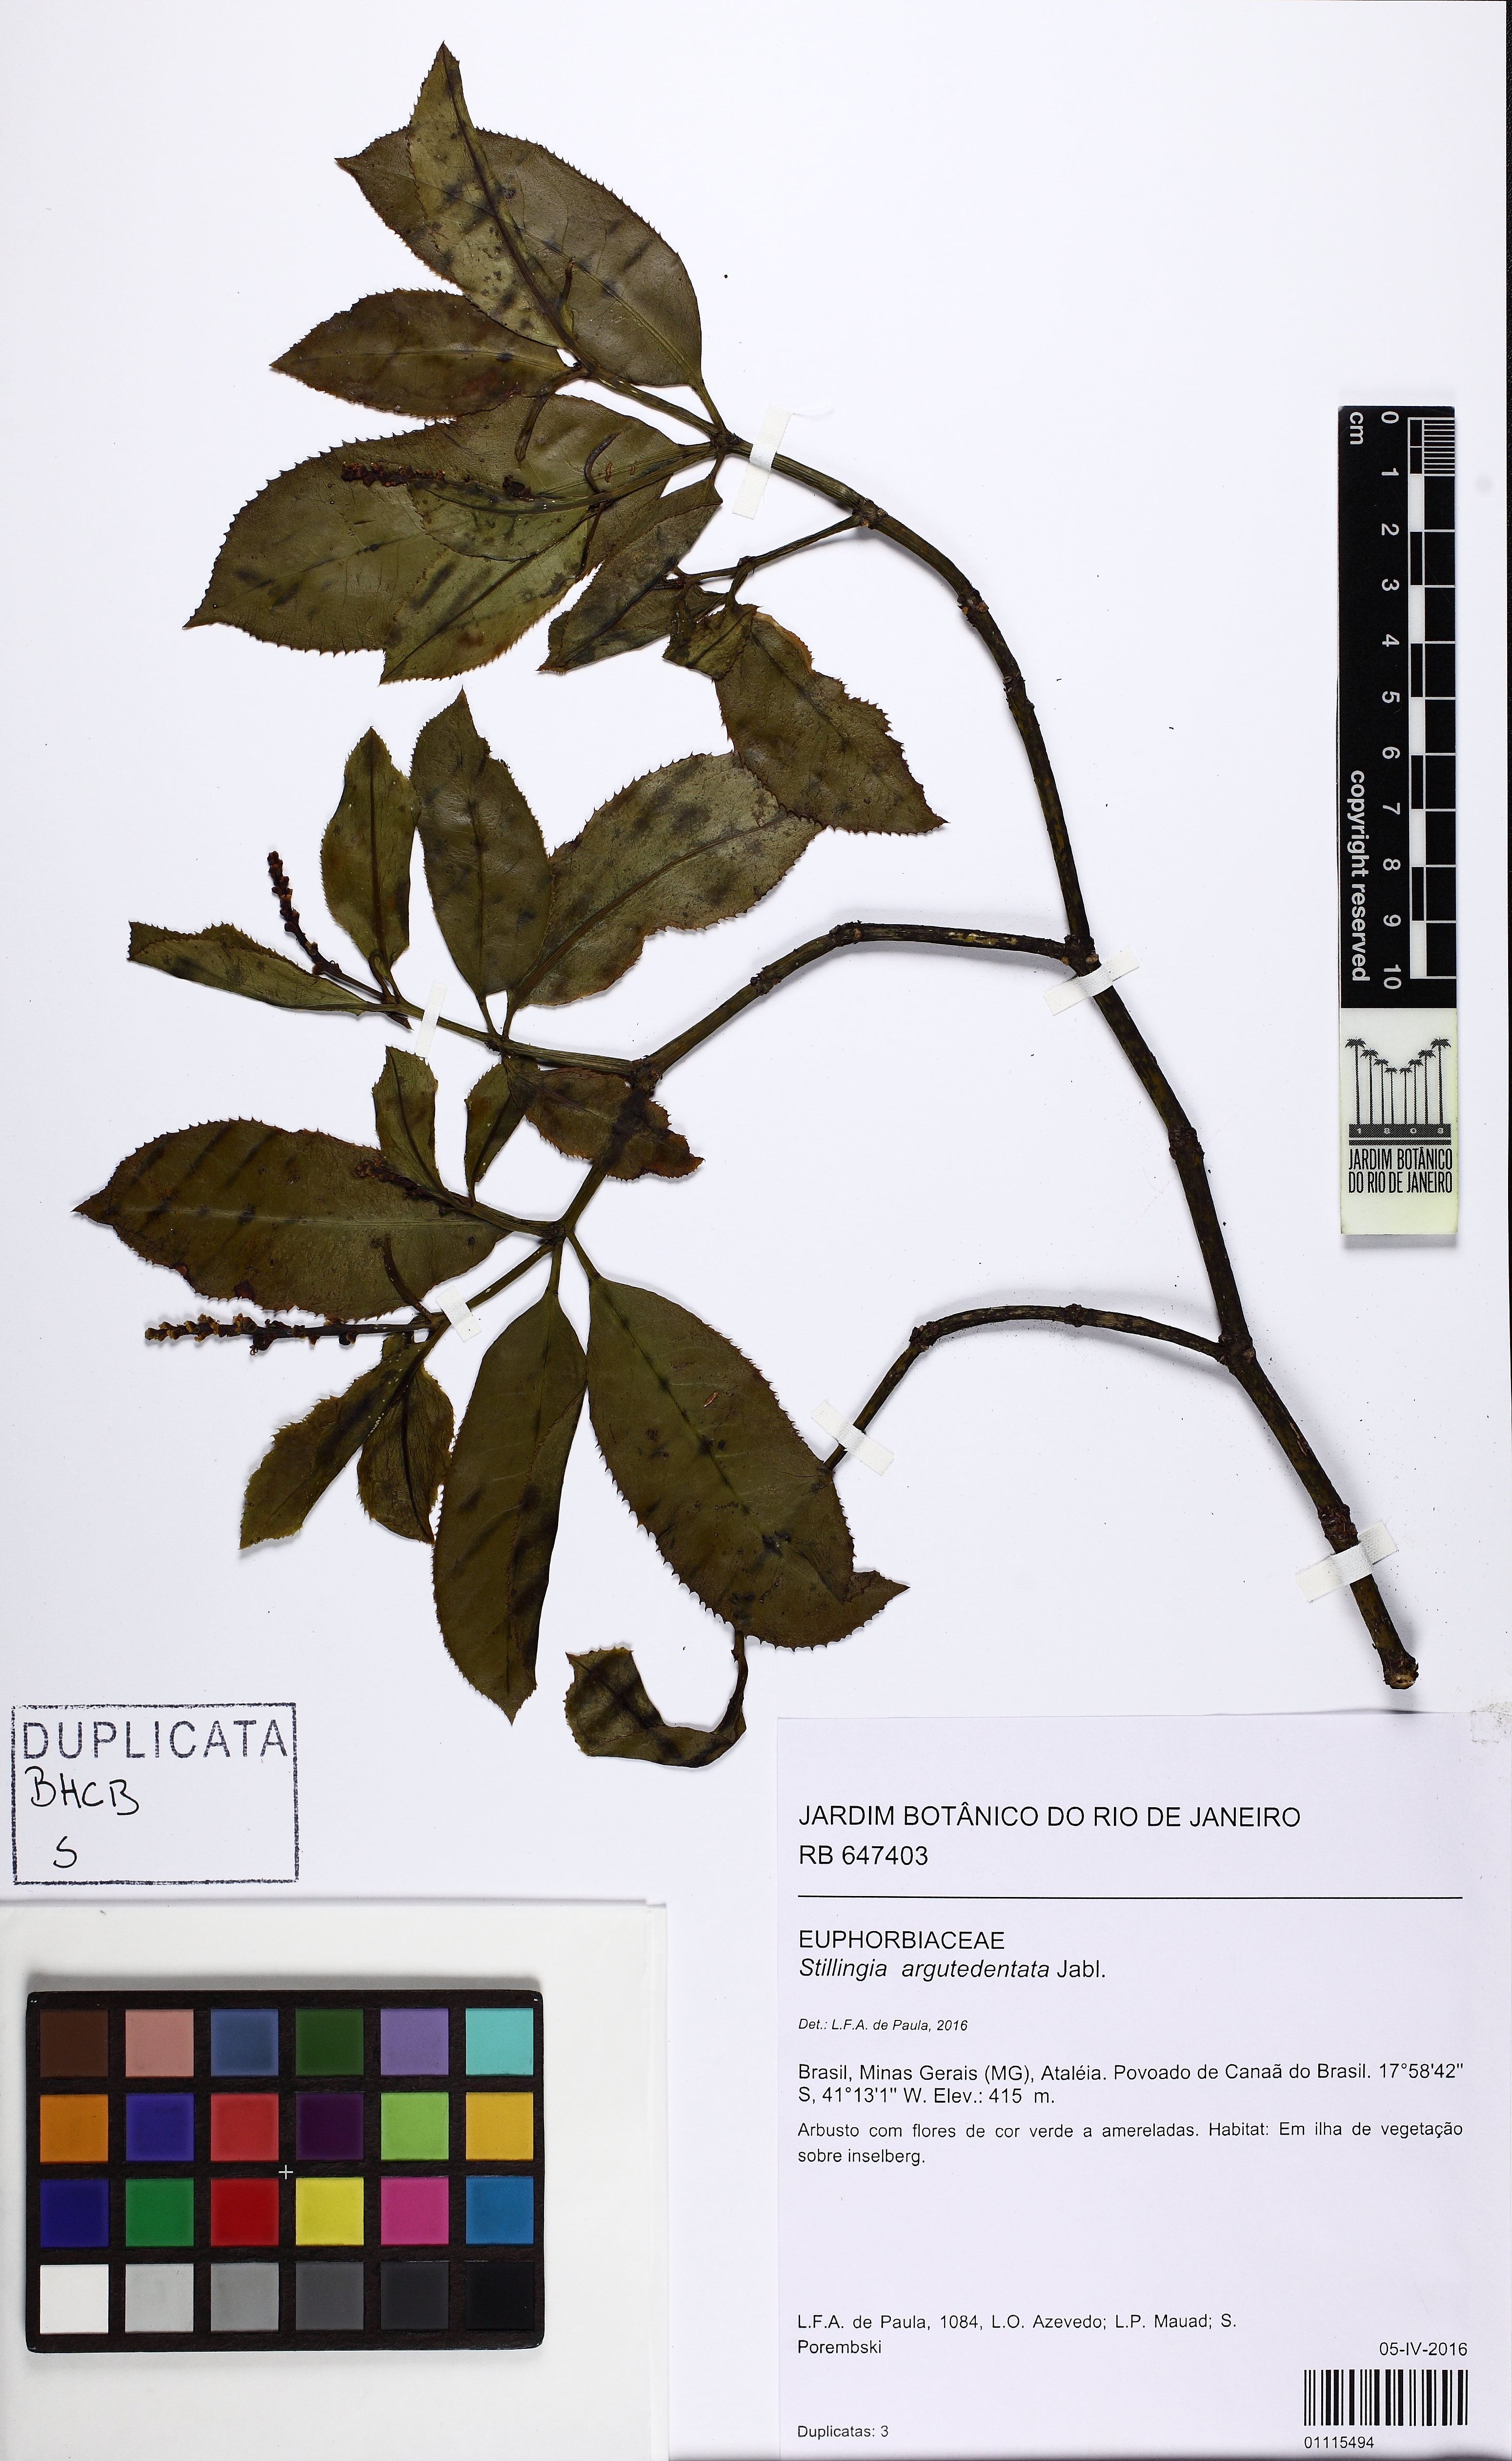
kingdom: Plantae
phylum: Tracheophyta
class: Magnoliopsida
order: Malpighiales
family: Euphorbiaceae
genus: Stillingia
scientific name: Stillingia argutedentata
